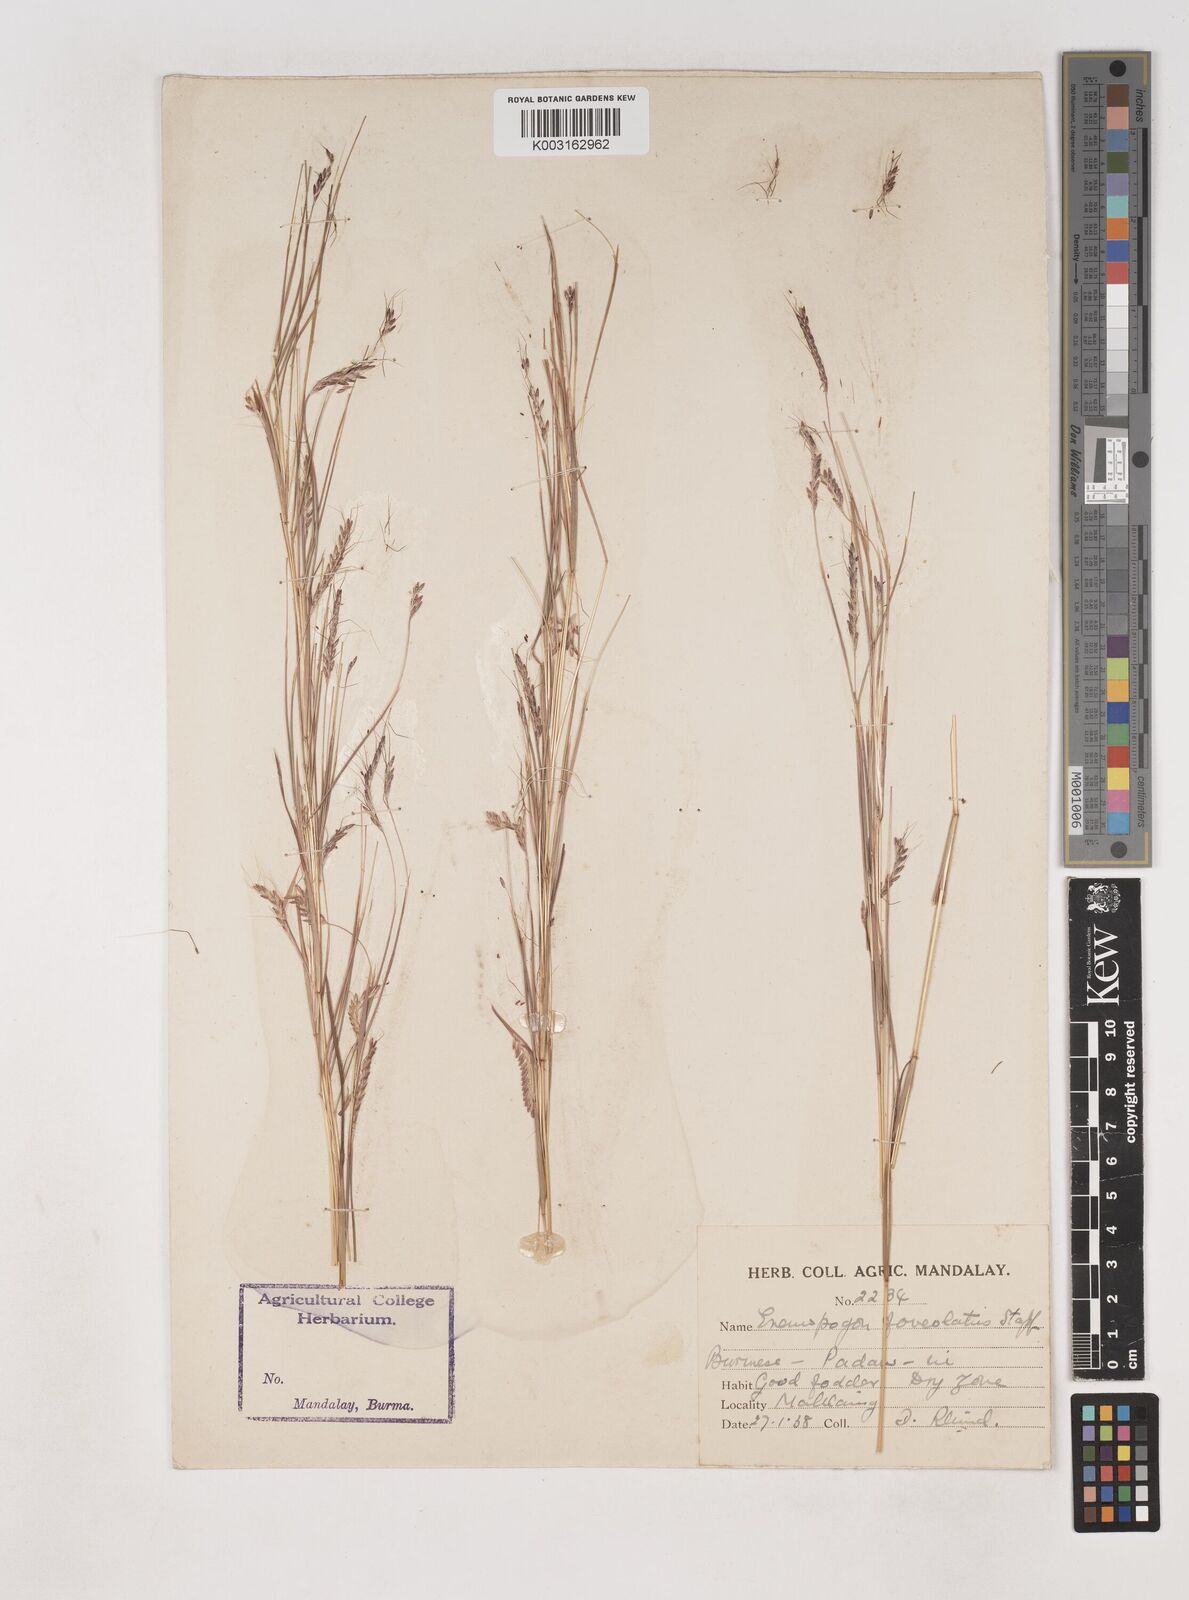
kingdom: Plantae
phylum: Tracheophyta
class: Liliopsida
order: Poales
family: Poaceae
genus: Dichanthium
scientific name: Dichanthium
